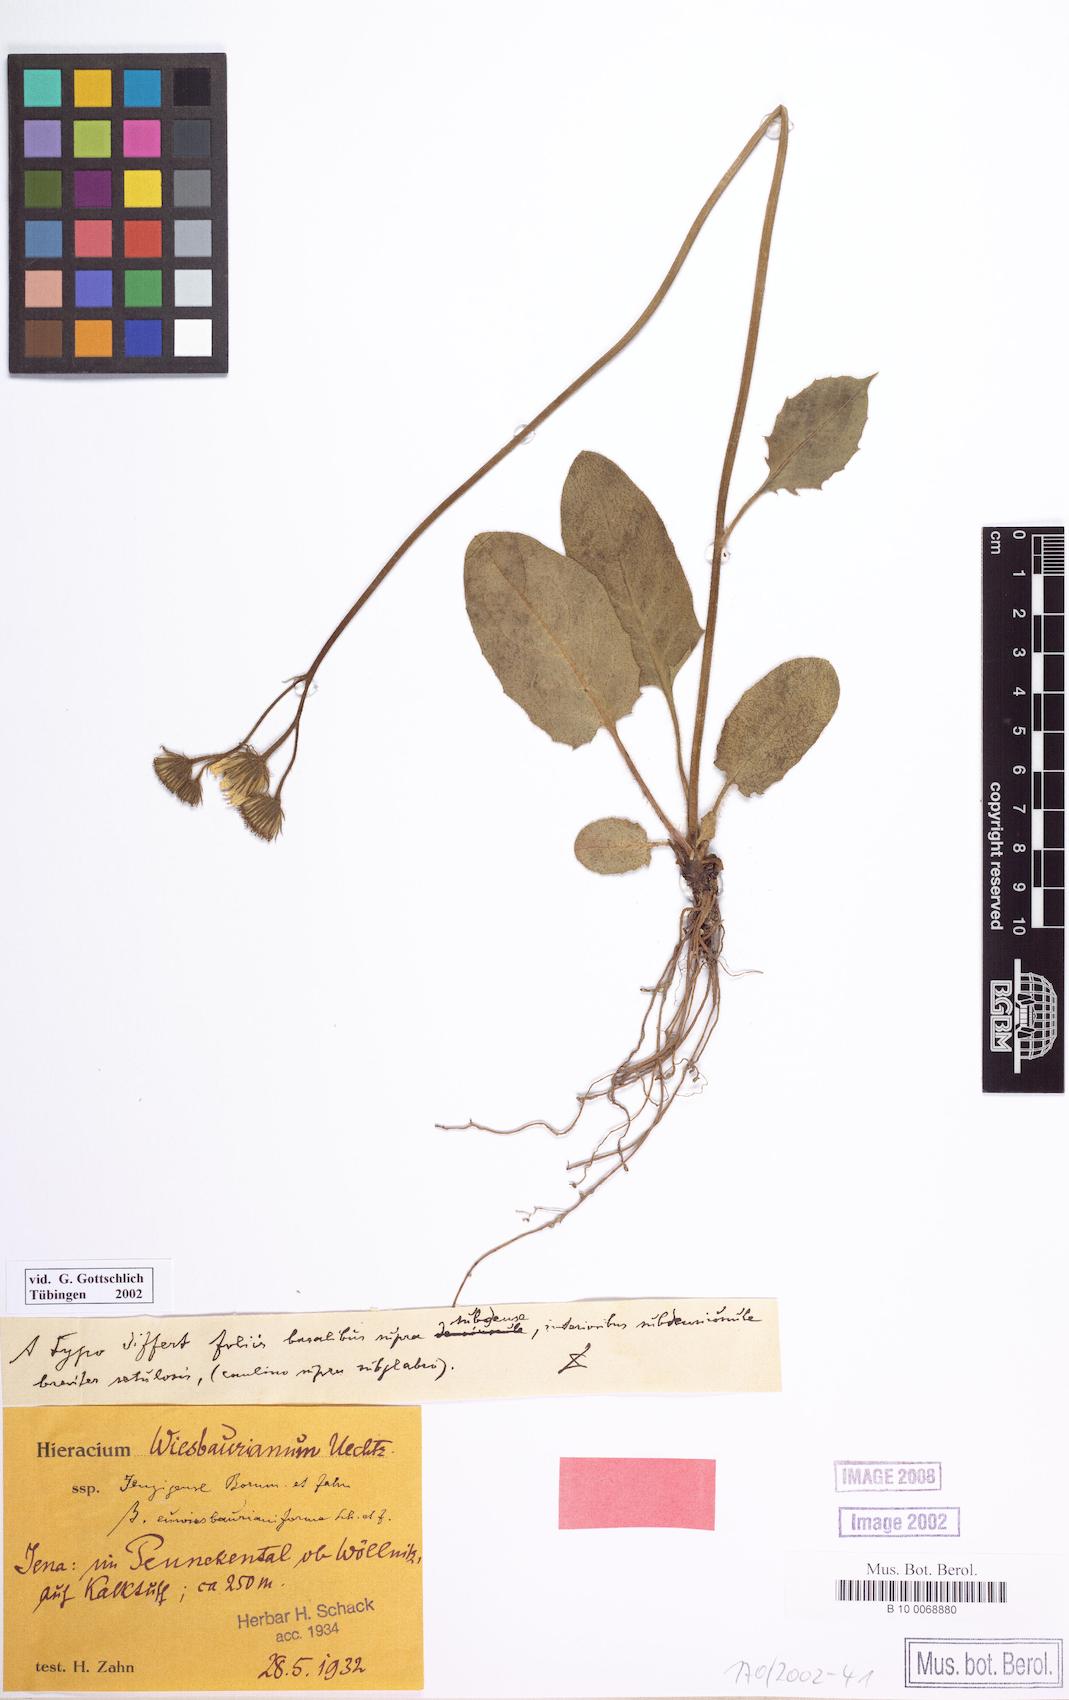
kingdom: Plantae
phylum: Tracheophyta
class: Magnoliopsida
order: Asterales
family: Asteraceae
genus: Hieracium
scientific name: Hieracium hypochoeroides
